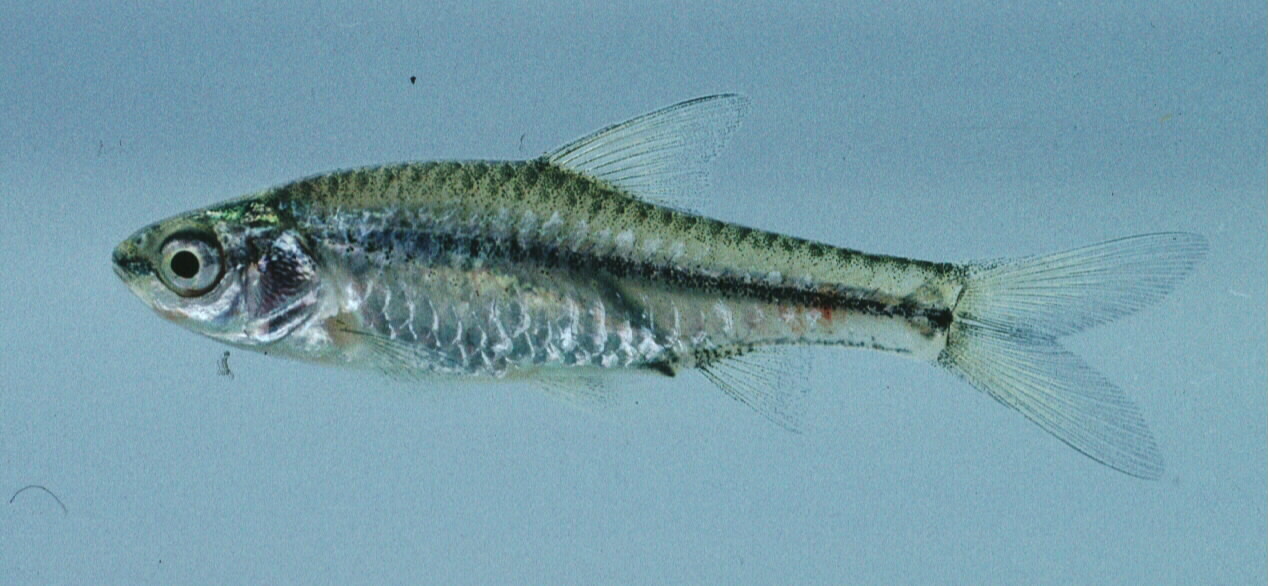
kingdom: Animalia
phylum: Chordata
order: Cypriniformes
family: Cyprinidae
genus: Enteromius
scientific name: Enteromius toppini
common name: East coast barb
